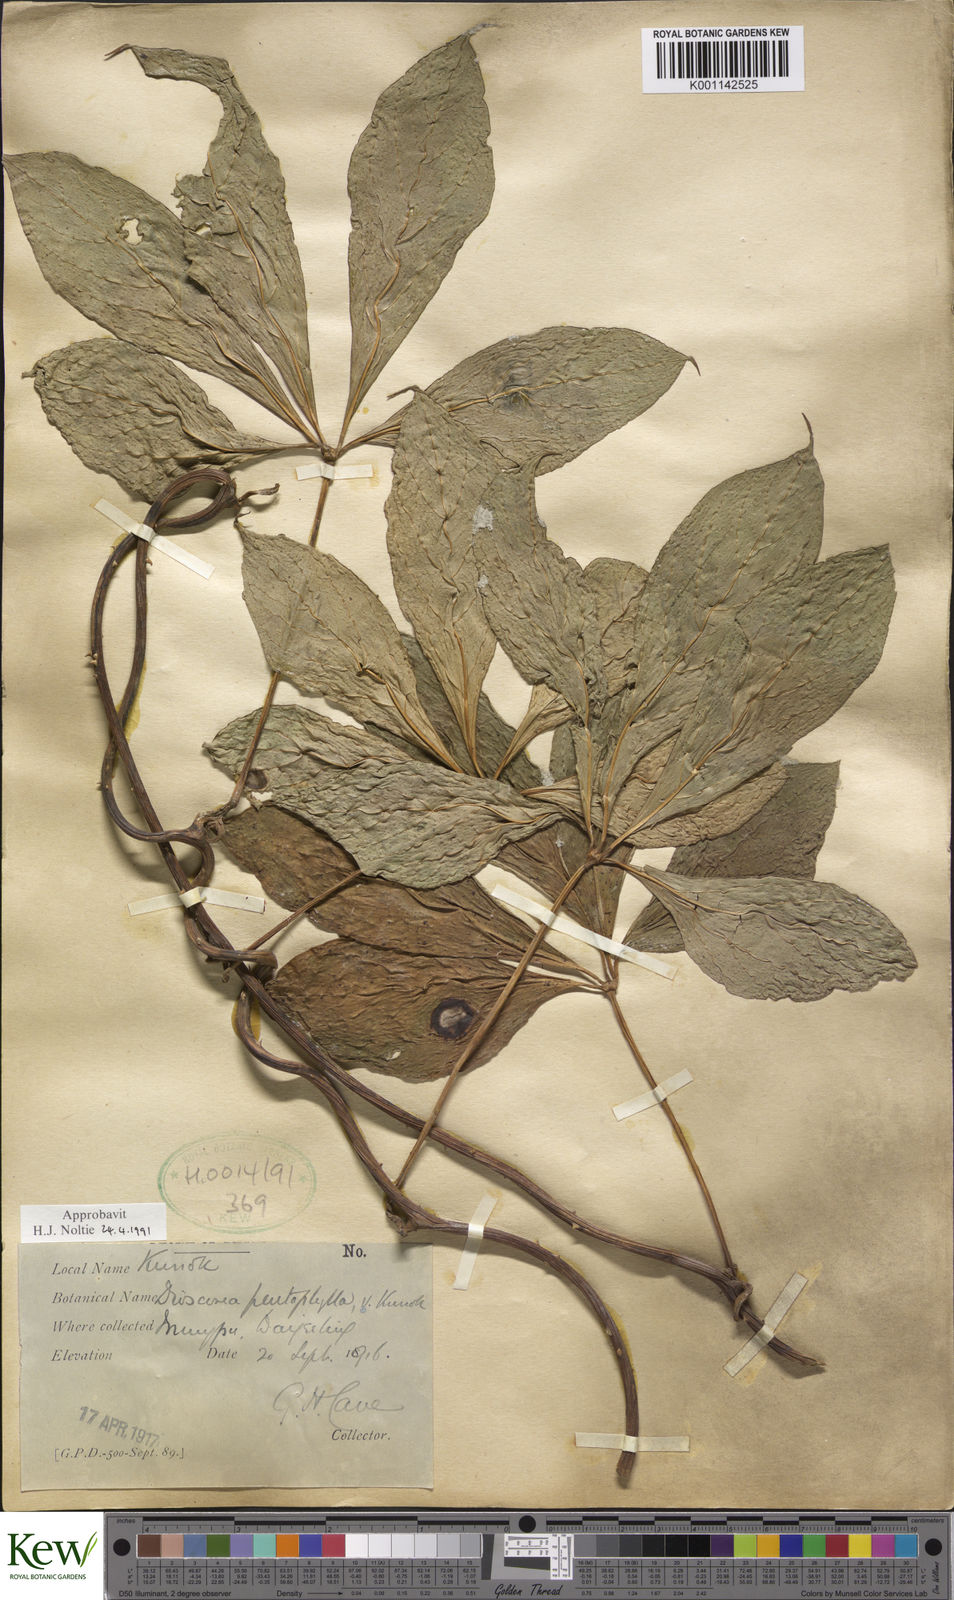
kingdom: Plantae
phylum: Tracheophyta
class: Liliopsida
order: Dioscoreales
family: Dioscoreaceae
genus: Dioscorea
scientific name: Dioscorea pentaphylla
